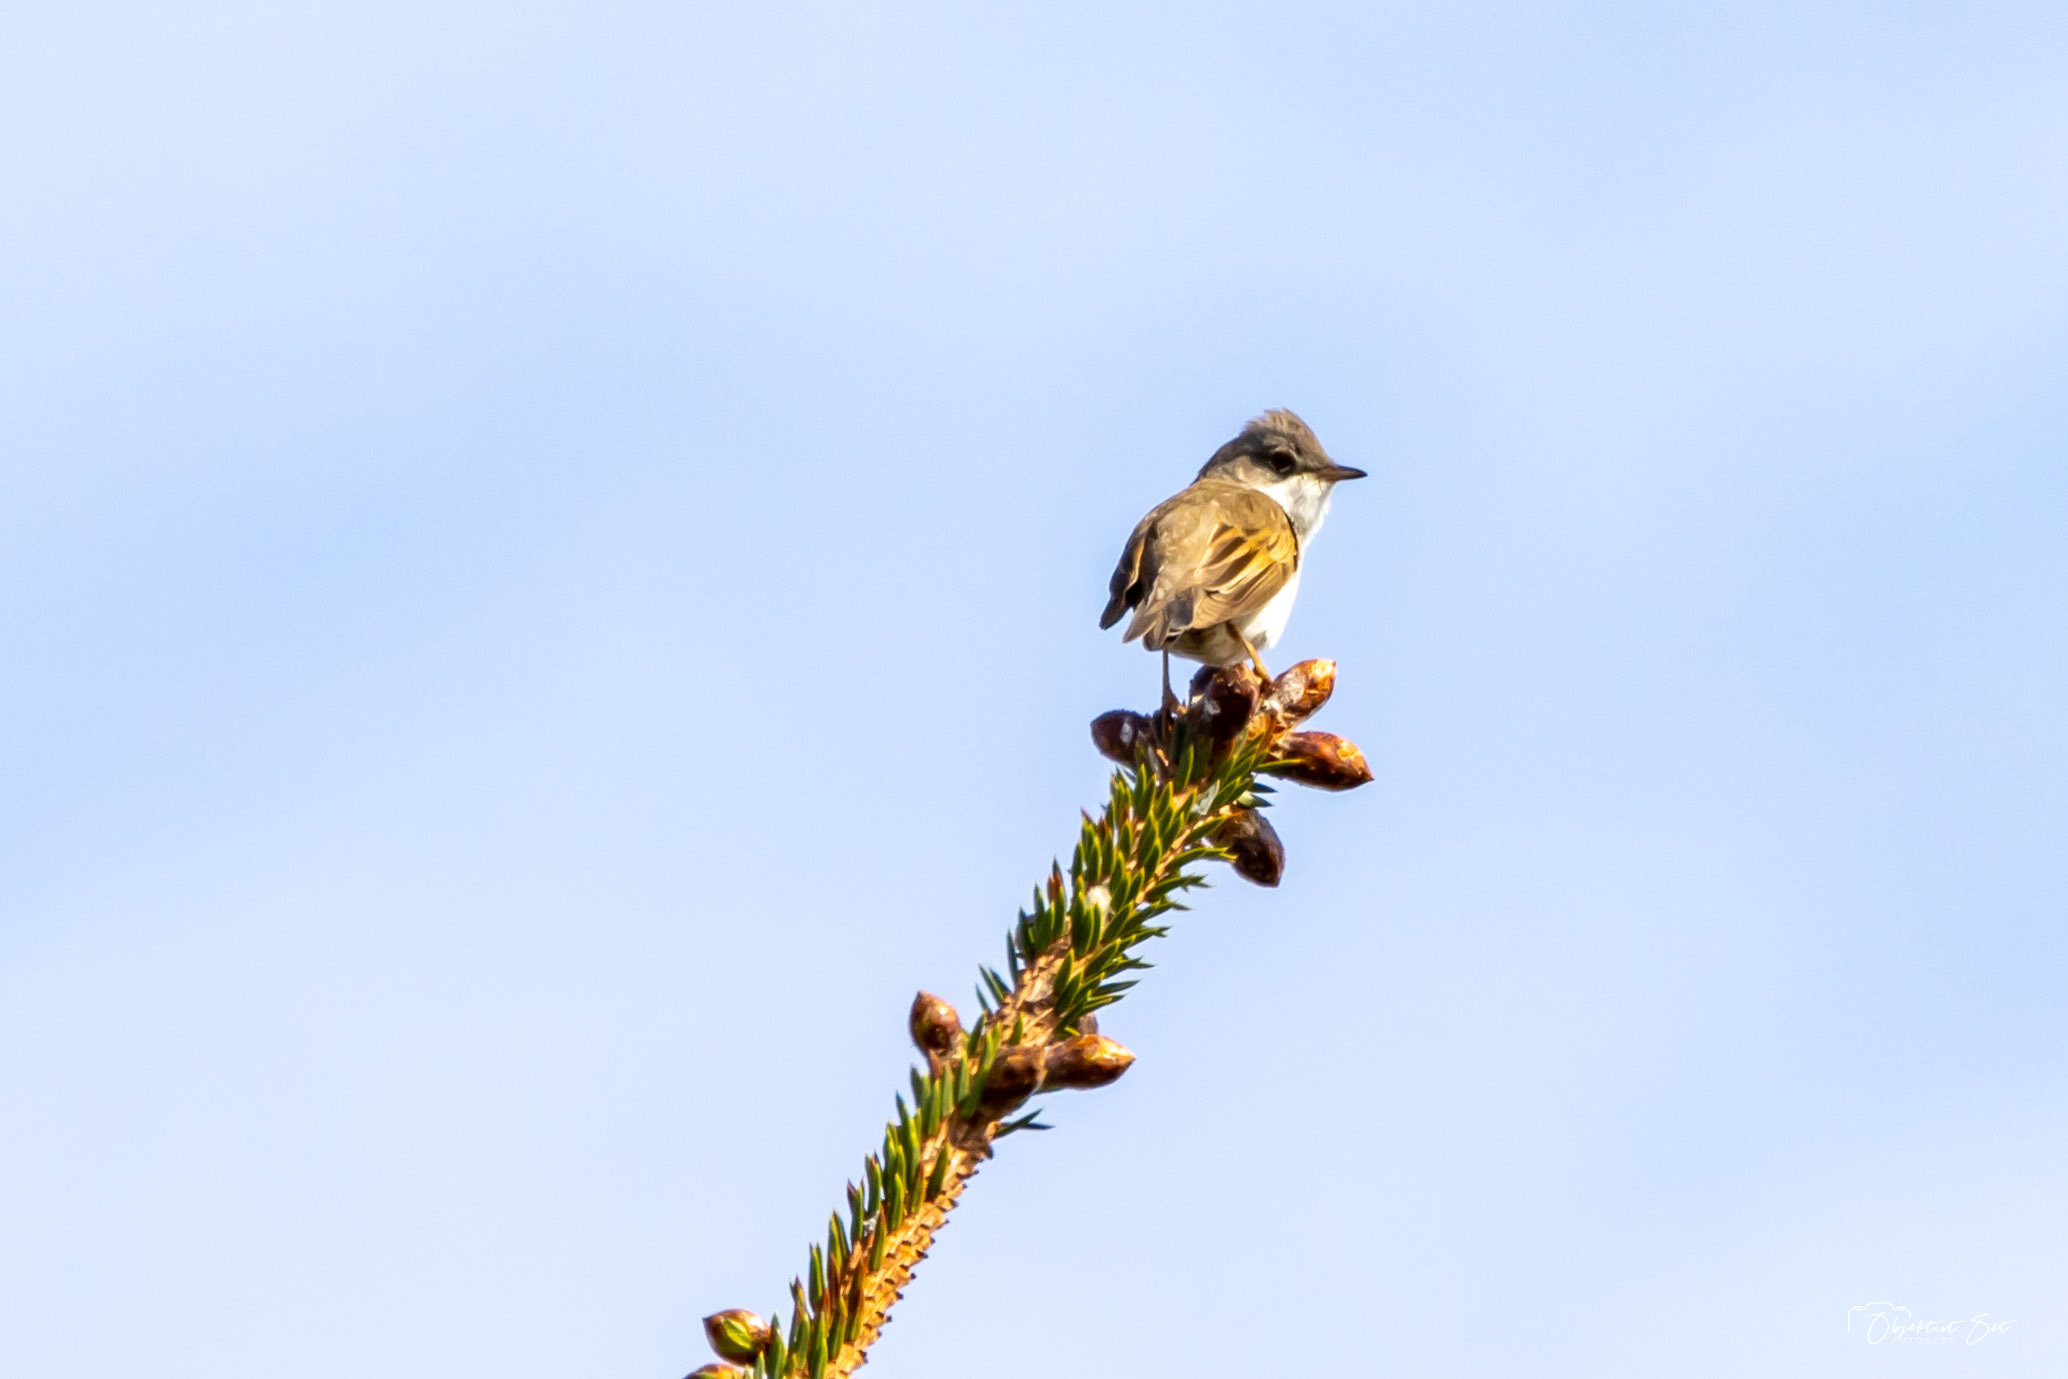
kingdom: Animalia
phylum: Chordata
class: Aves
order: Passeriformes
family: Sylviidae
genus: Sylvia
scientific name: Sylvia communis
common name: Tornsanger
